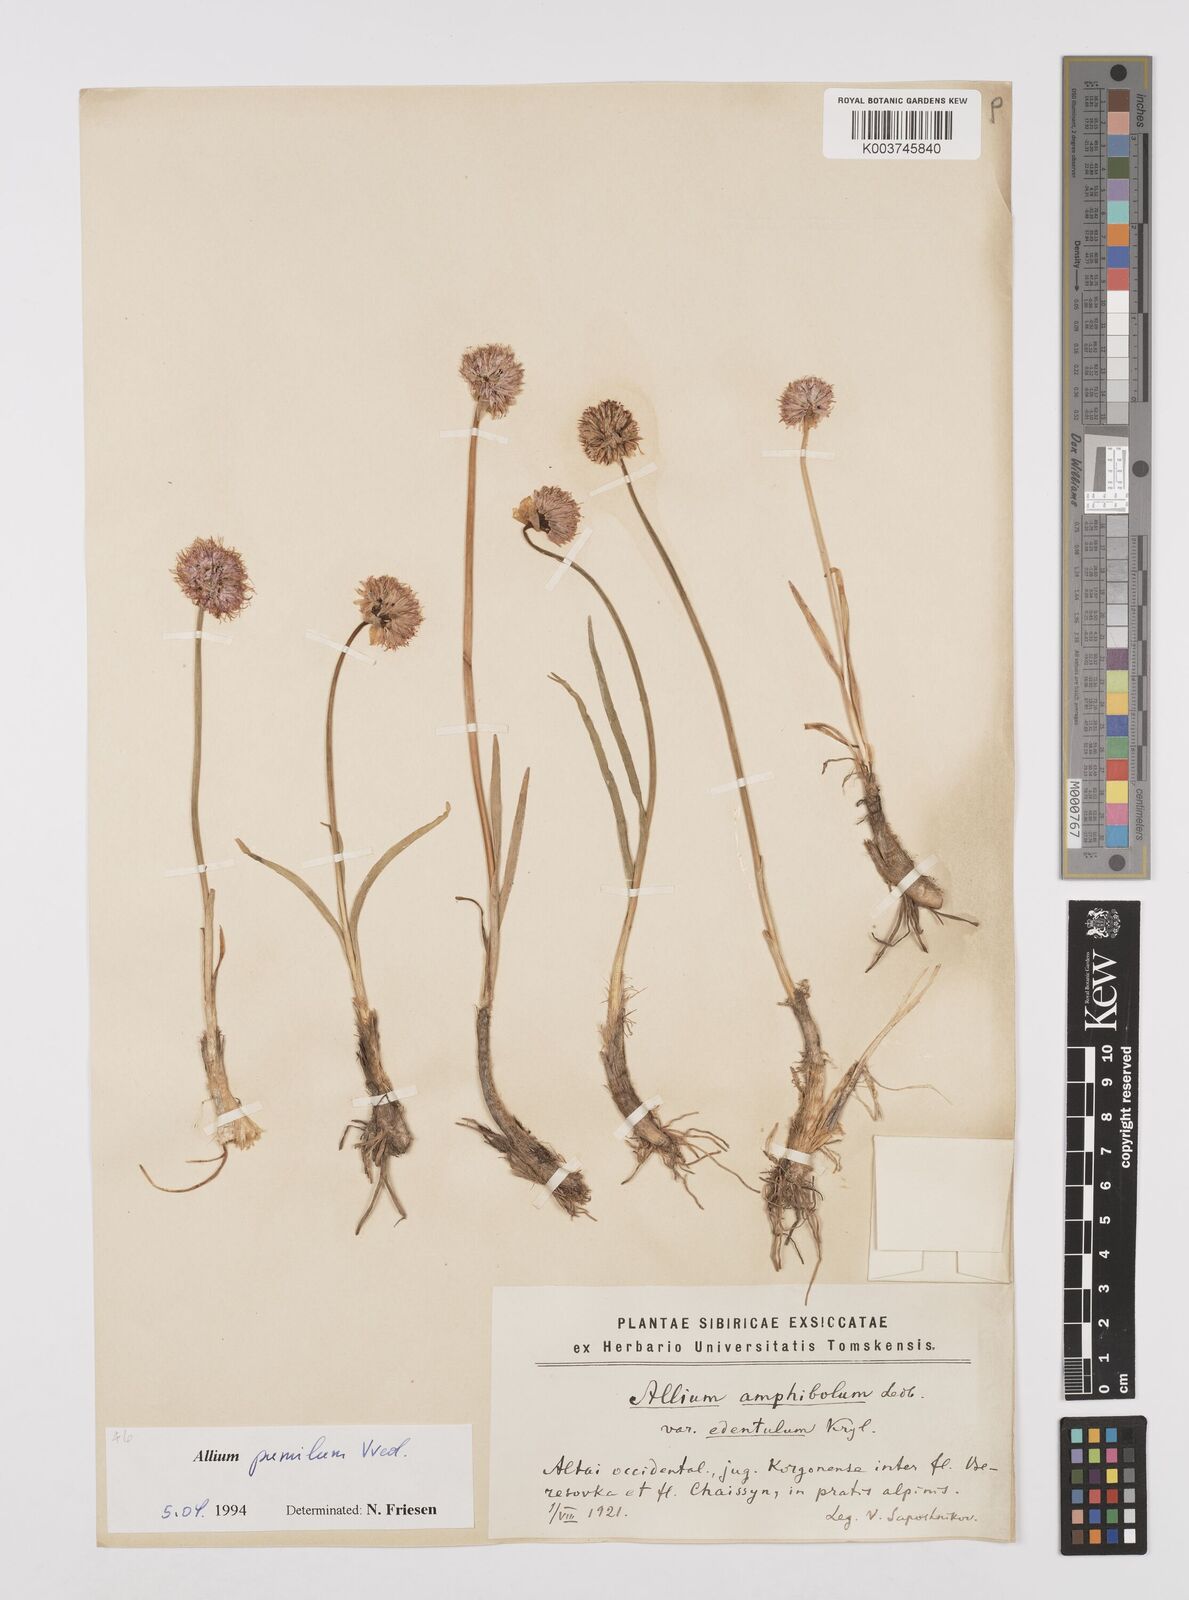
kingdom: Plantae
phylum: Tracheophyta
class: Liliopsida
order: Asparagales
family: Amaryllidaceae
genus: Allium
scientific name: Allium pumilum
